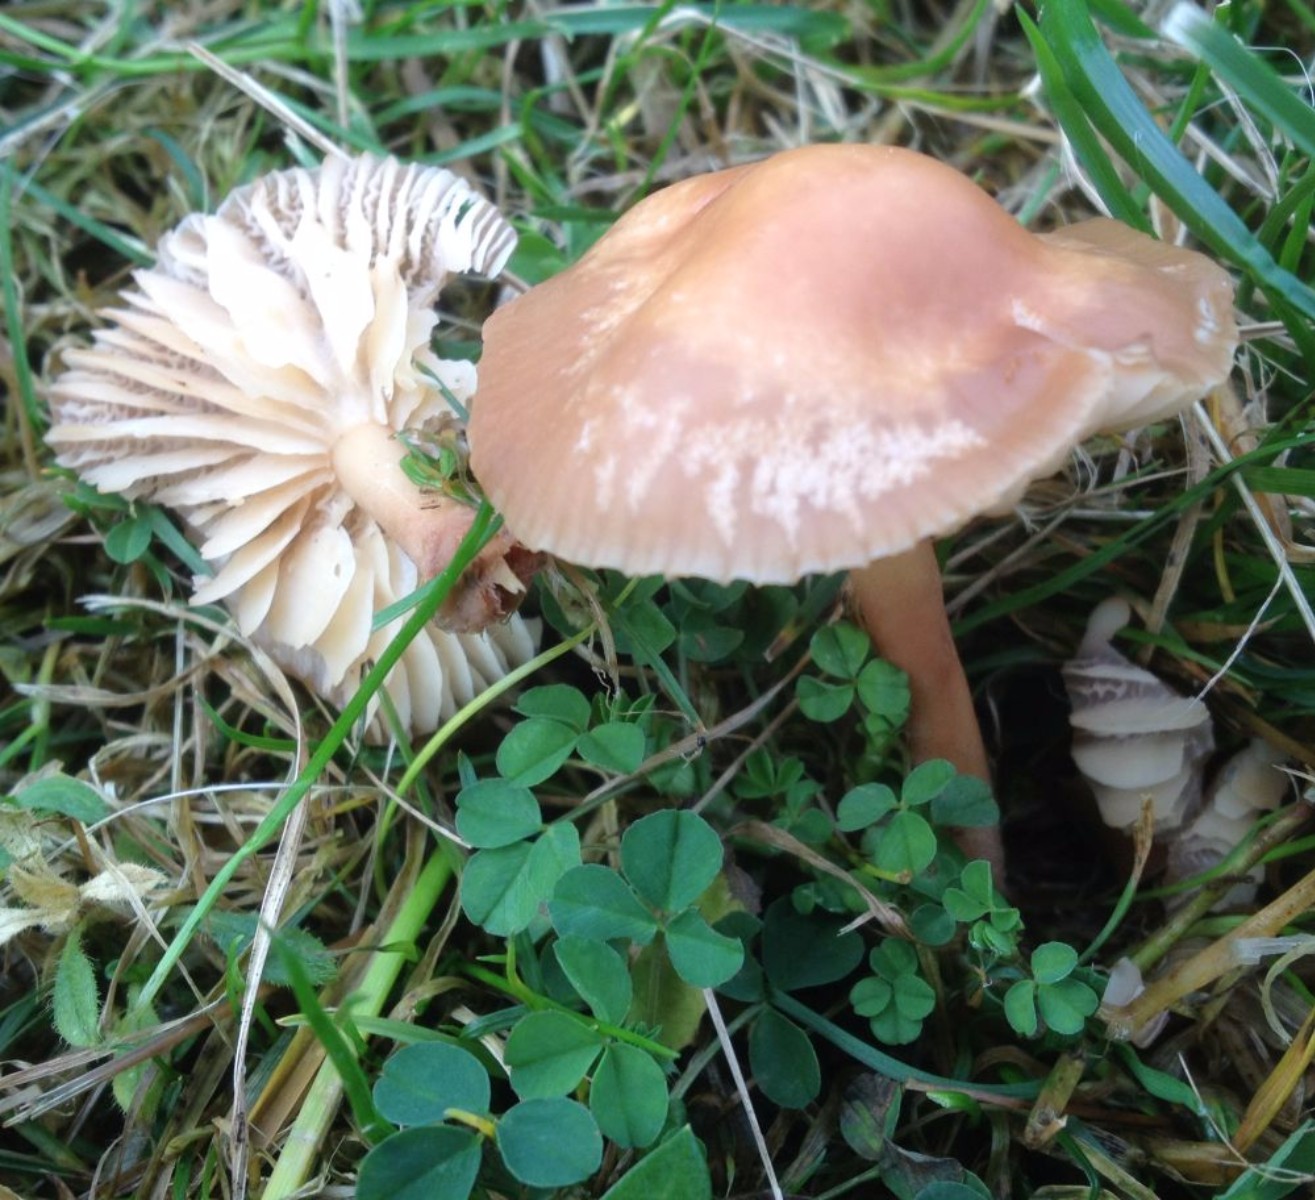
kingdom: Fungi
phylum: Basidiomycota
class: Agaricomycetes
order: Agaricales
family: Marasmiaceae
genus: Marasmius
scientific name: Marasmius oreades
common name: elledans-bruskhat
